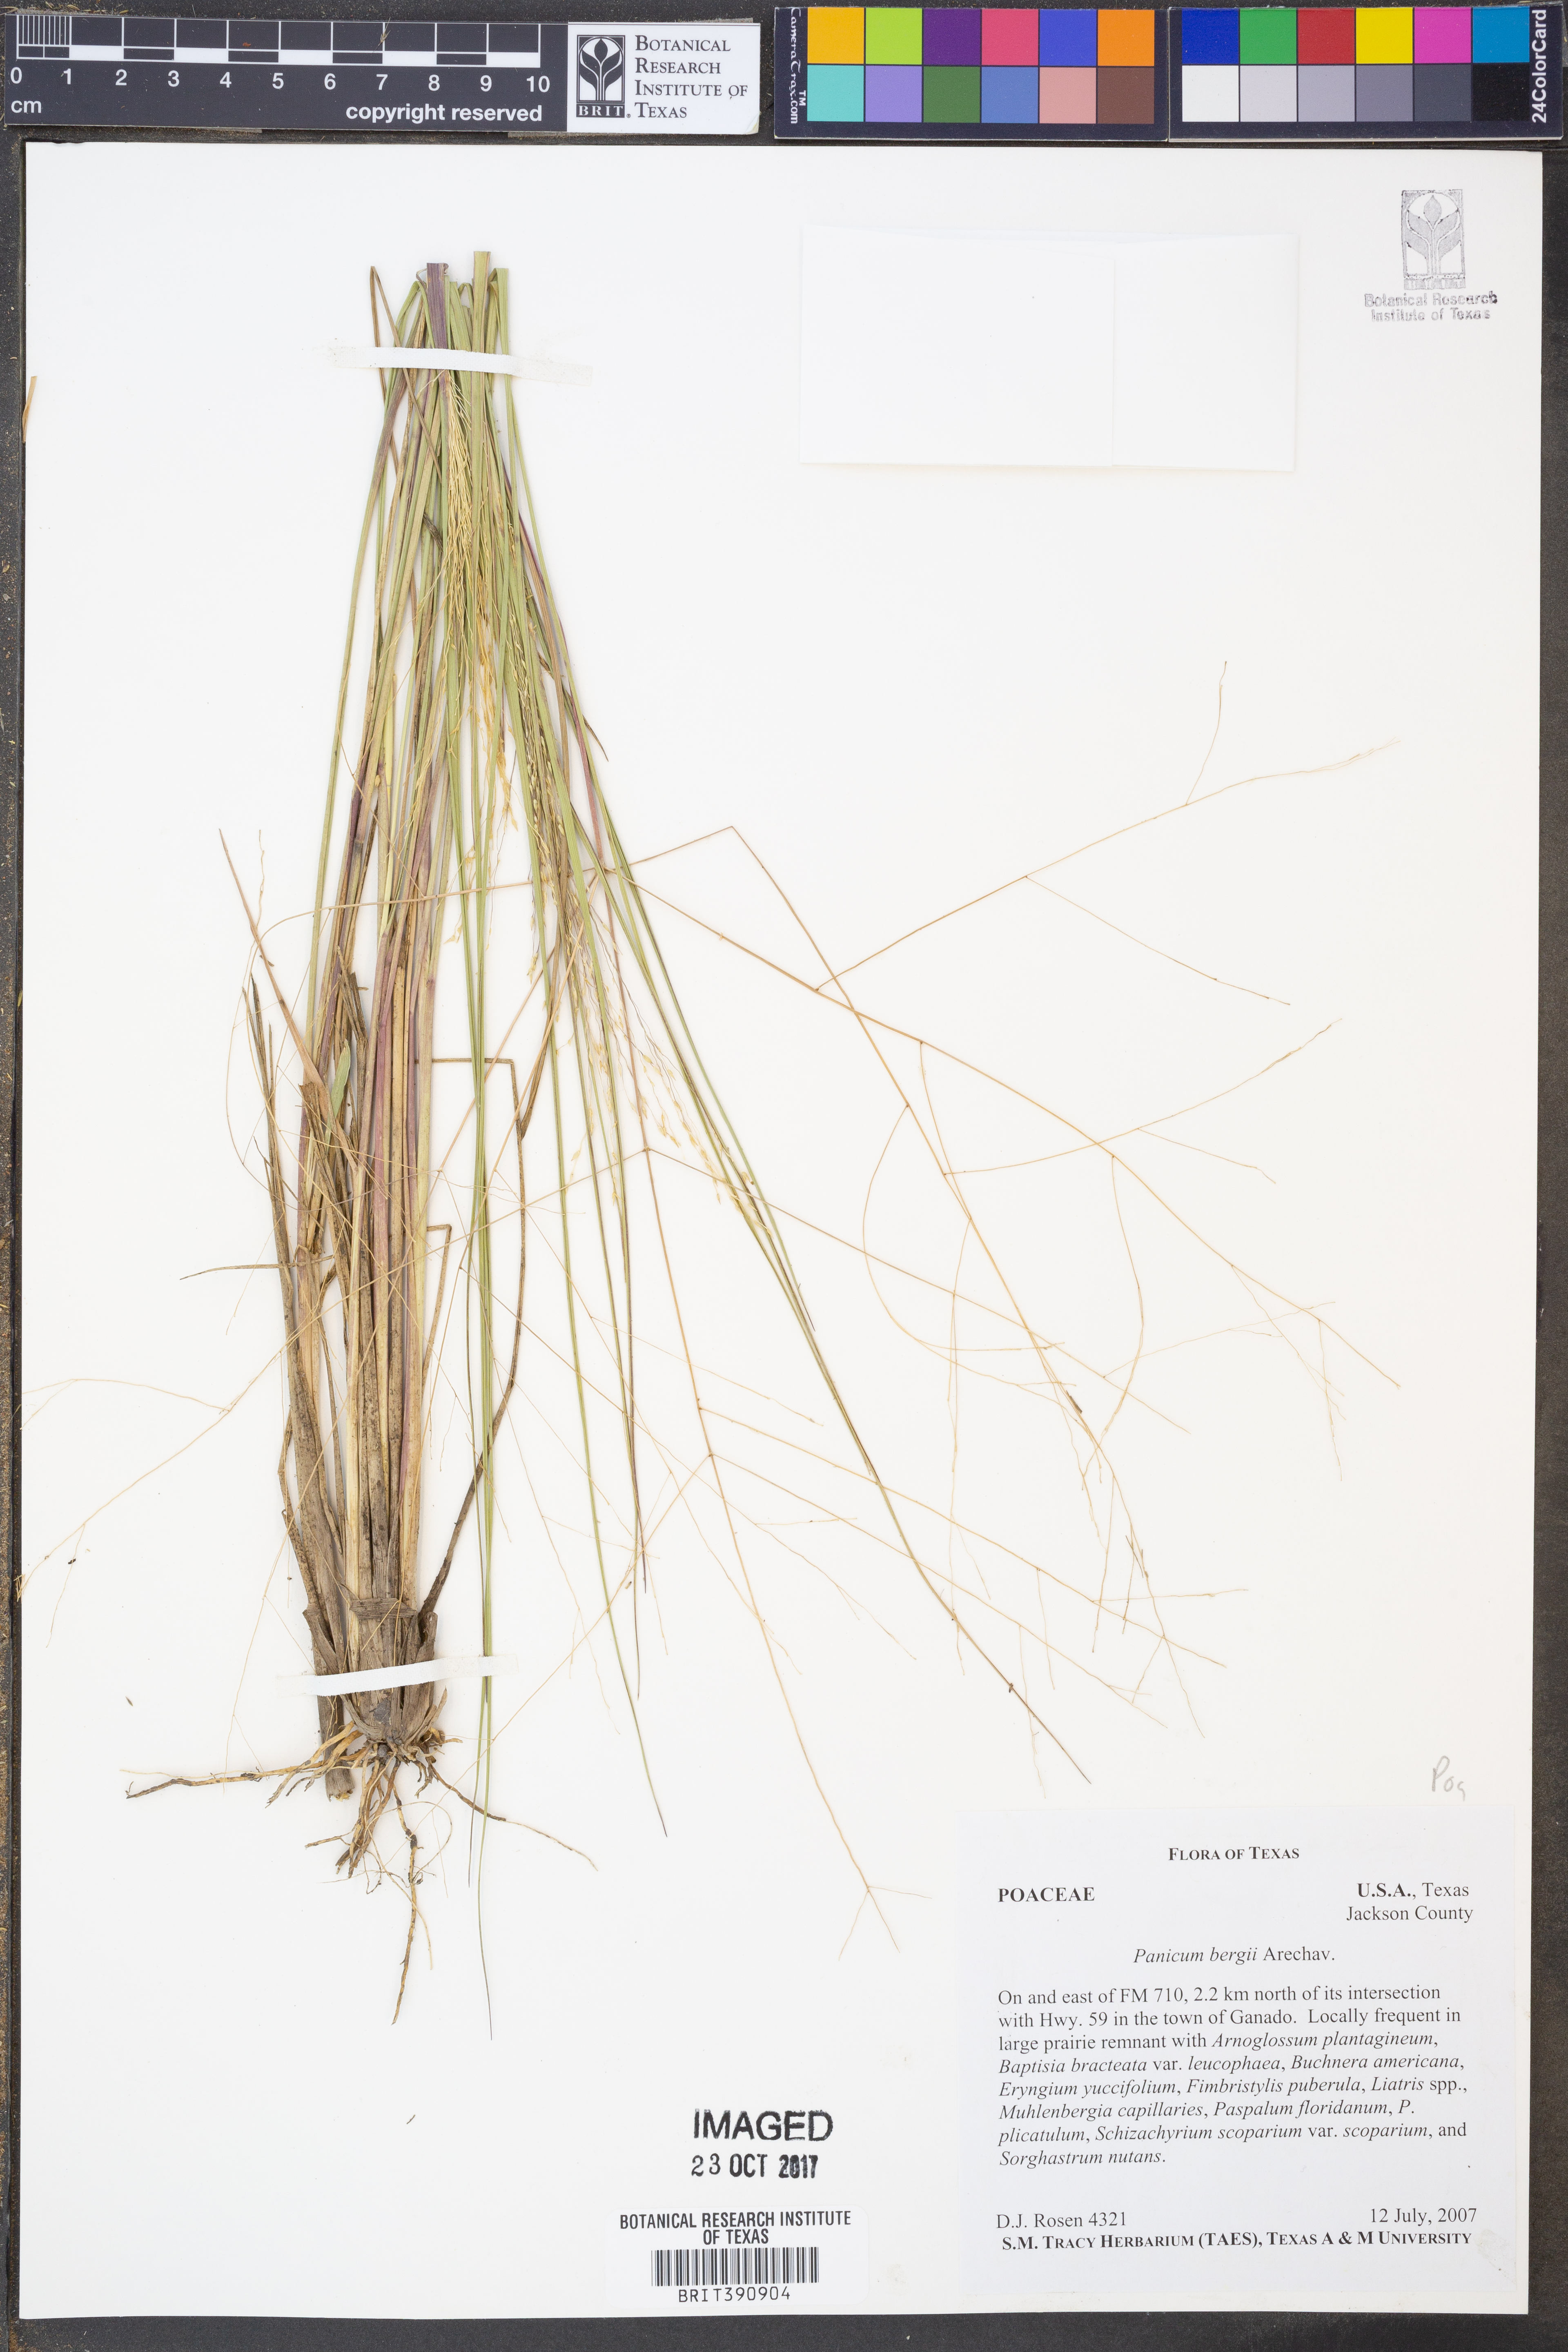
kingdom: Plantae
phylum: Tracheophyta
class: Liliopsida
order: Poales
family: Poaceae
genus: Panicum
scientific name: Panicum bergii
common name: Berg's panicgrass
